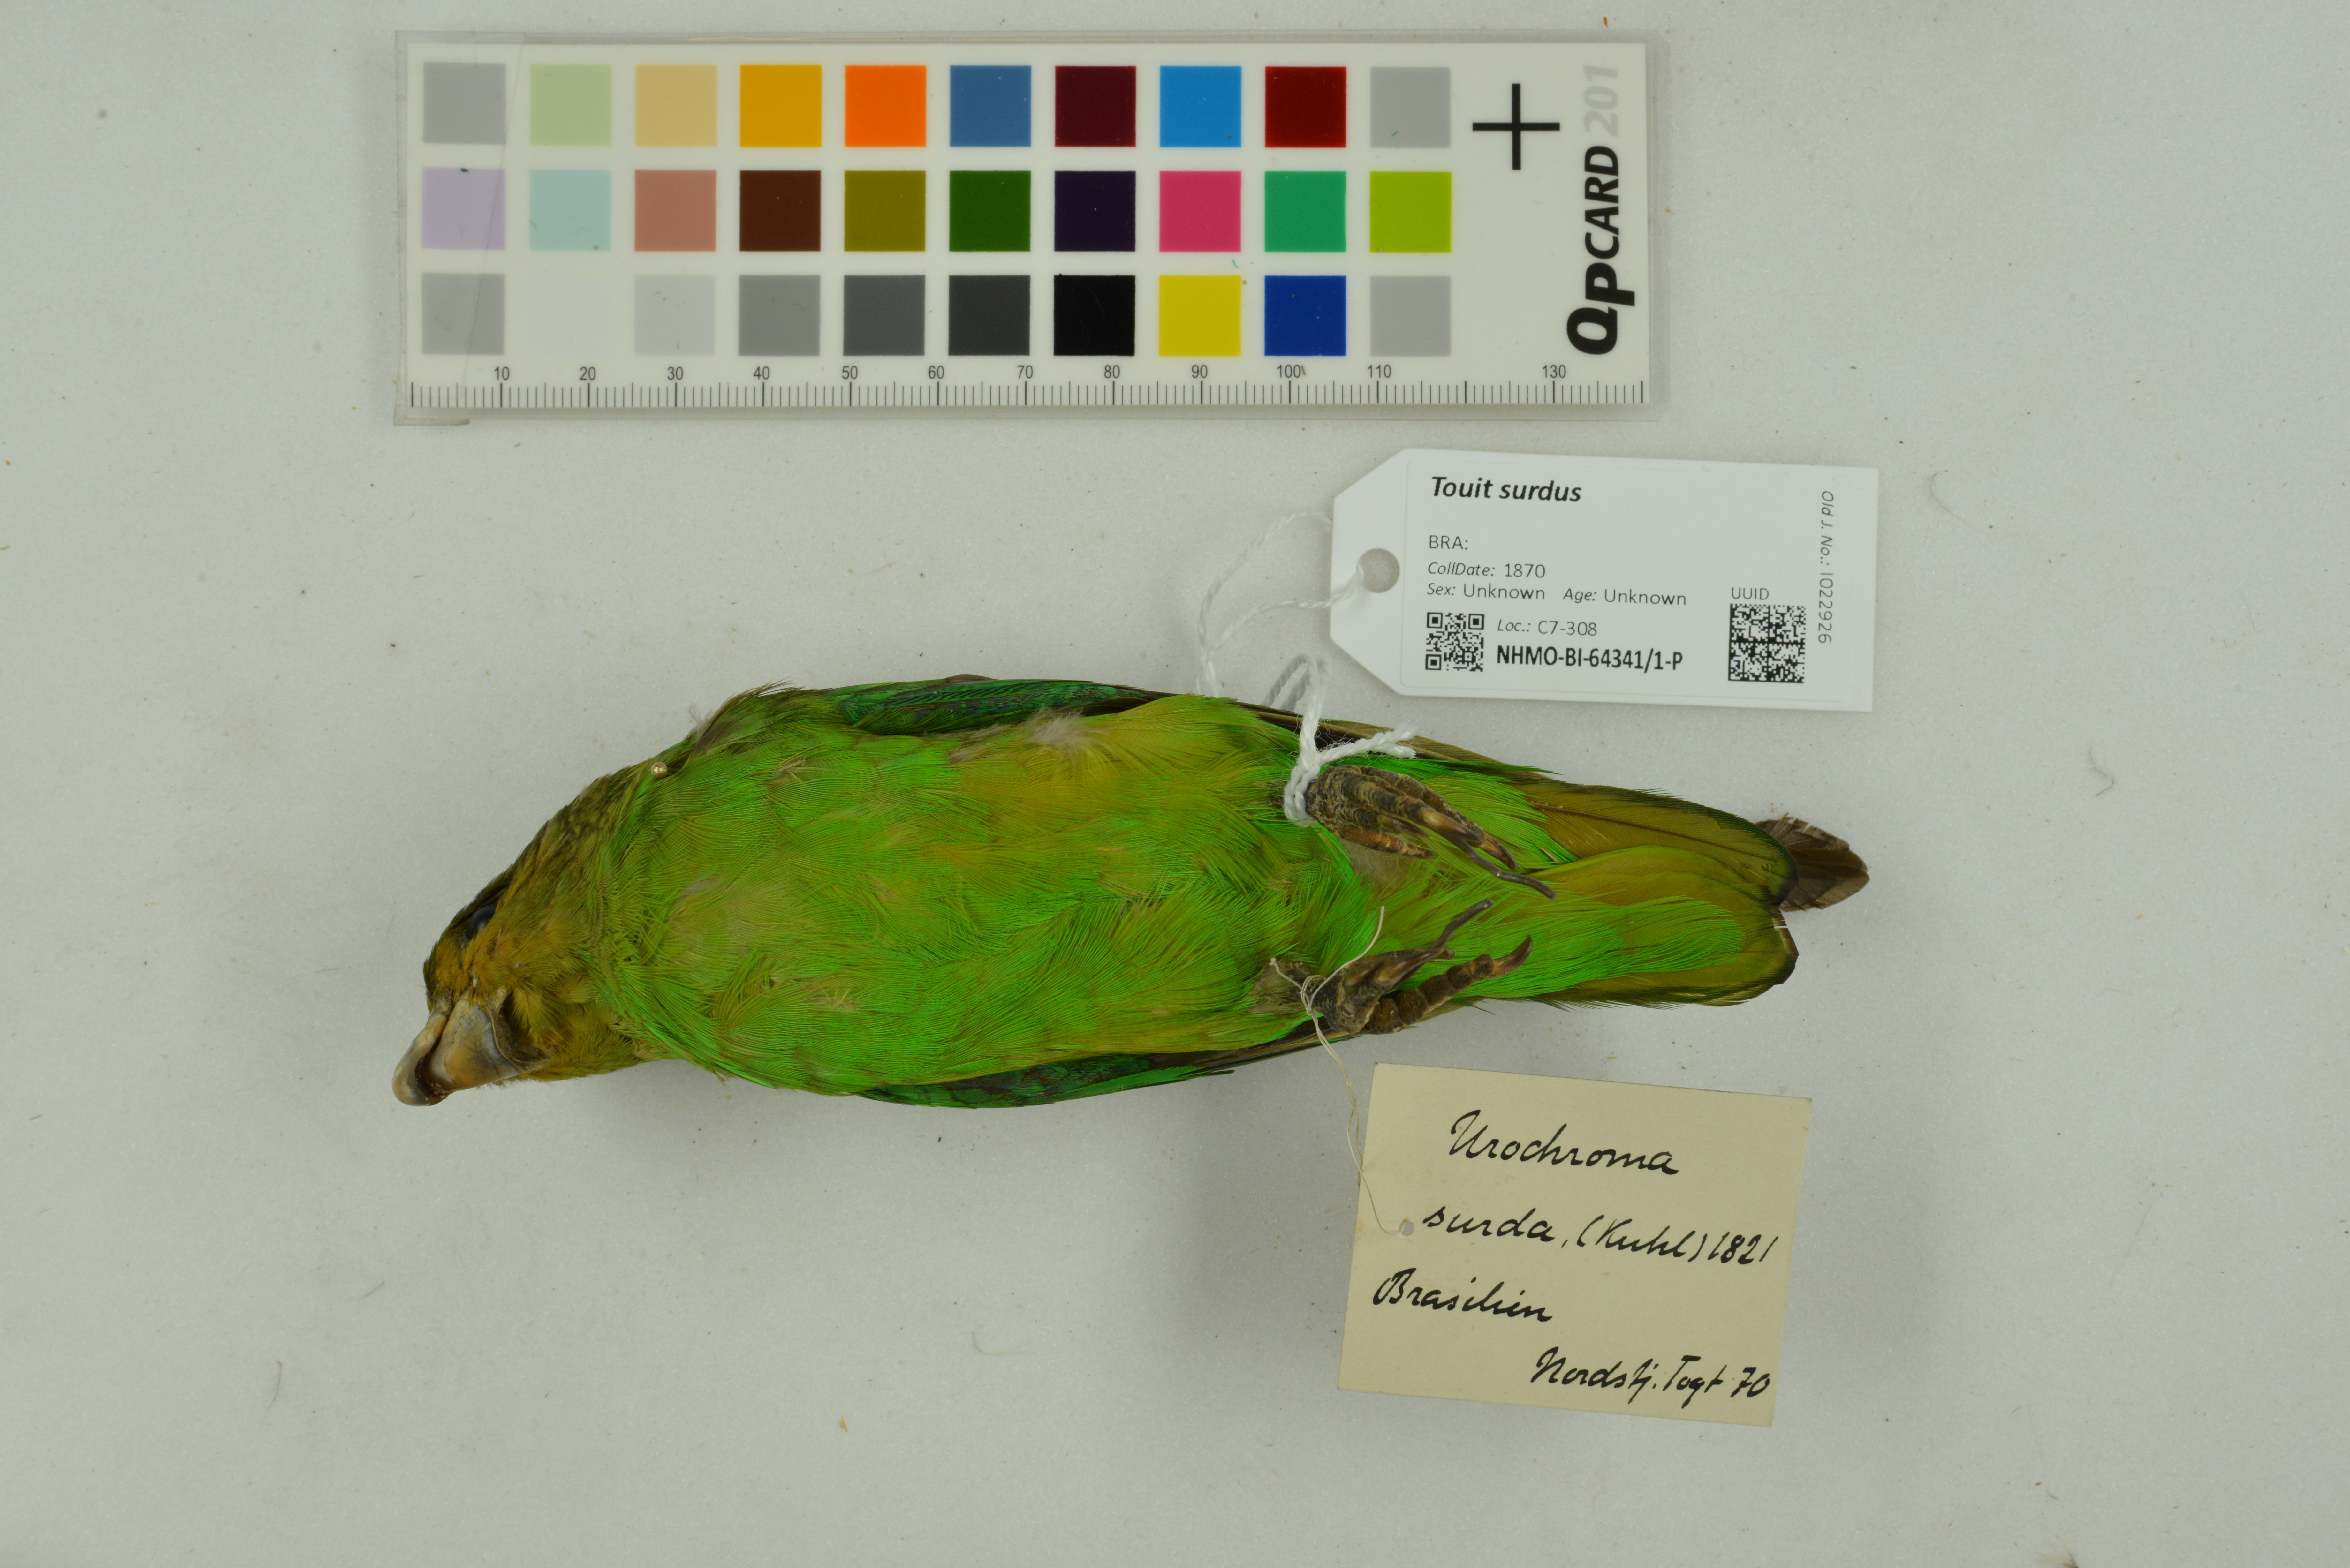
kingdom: Animalia
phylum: Chordata
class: Aves
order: Psittaciformes
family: Psittacidae
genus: Touit
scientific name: Touit surdus
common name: Golden-tailed parrotlet
